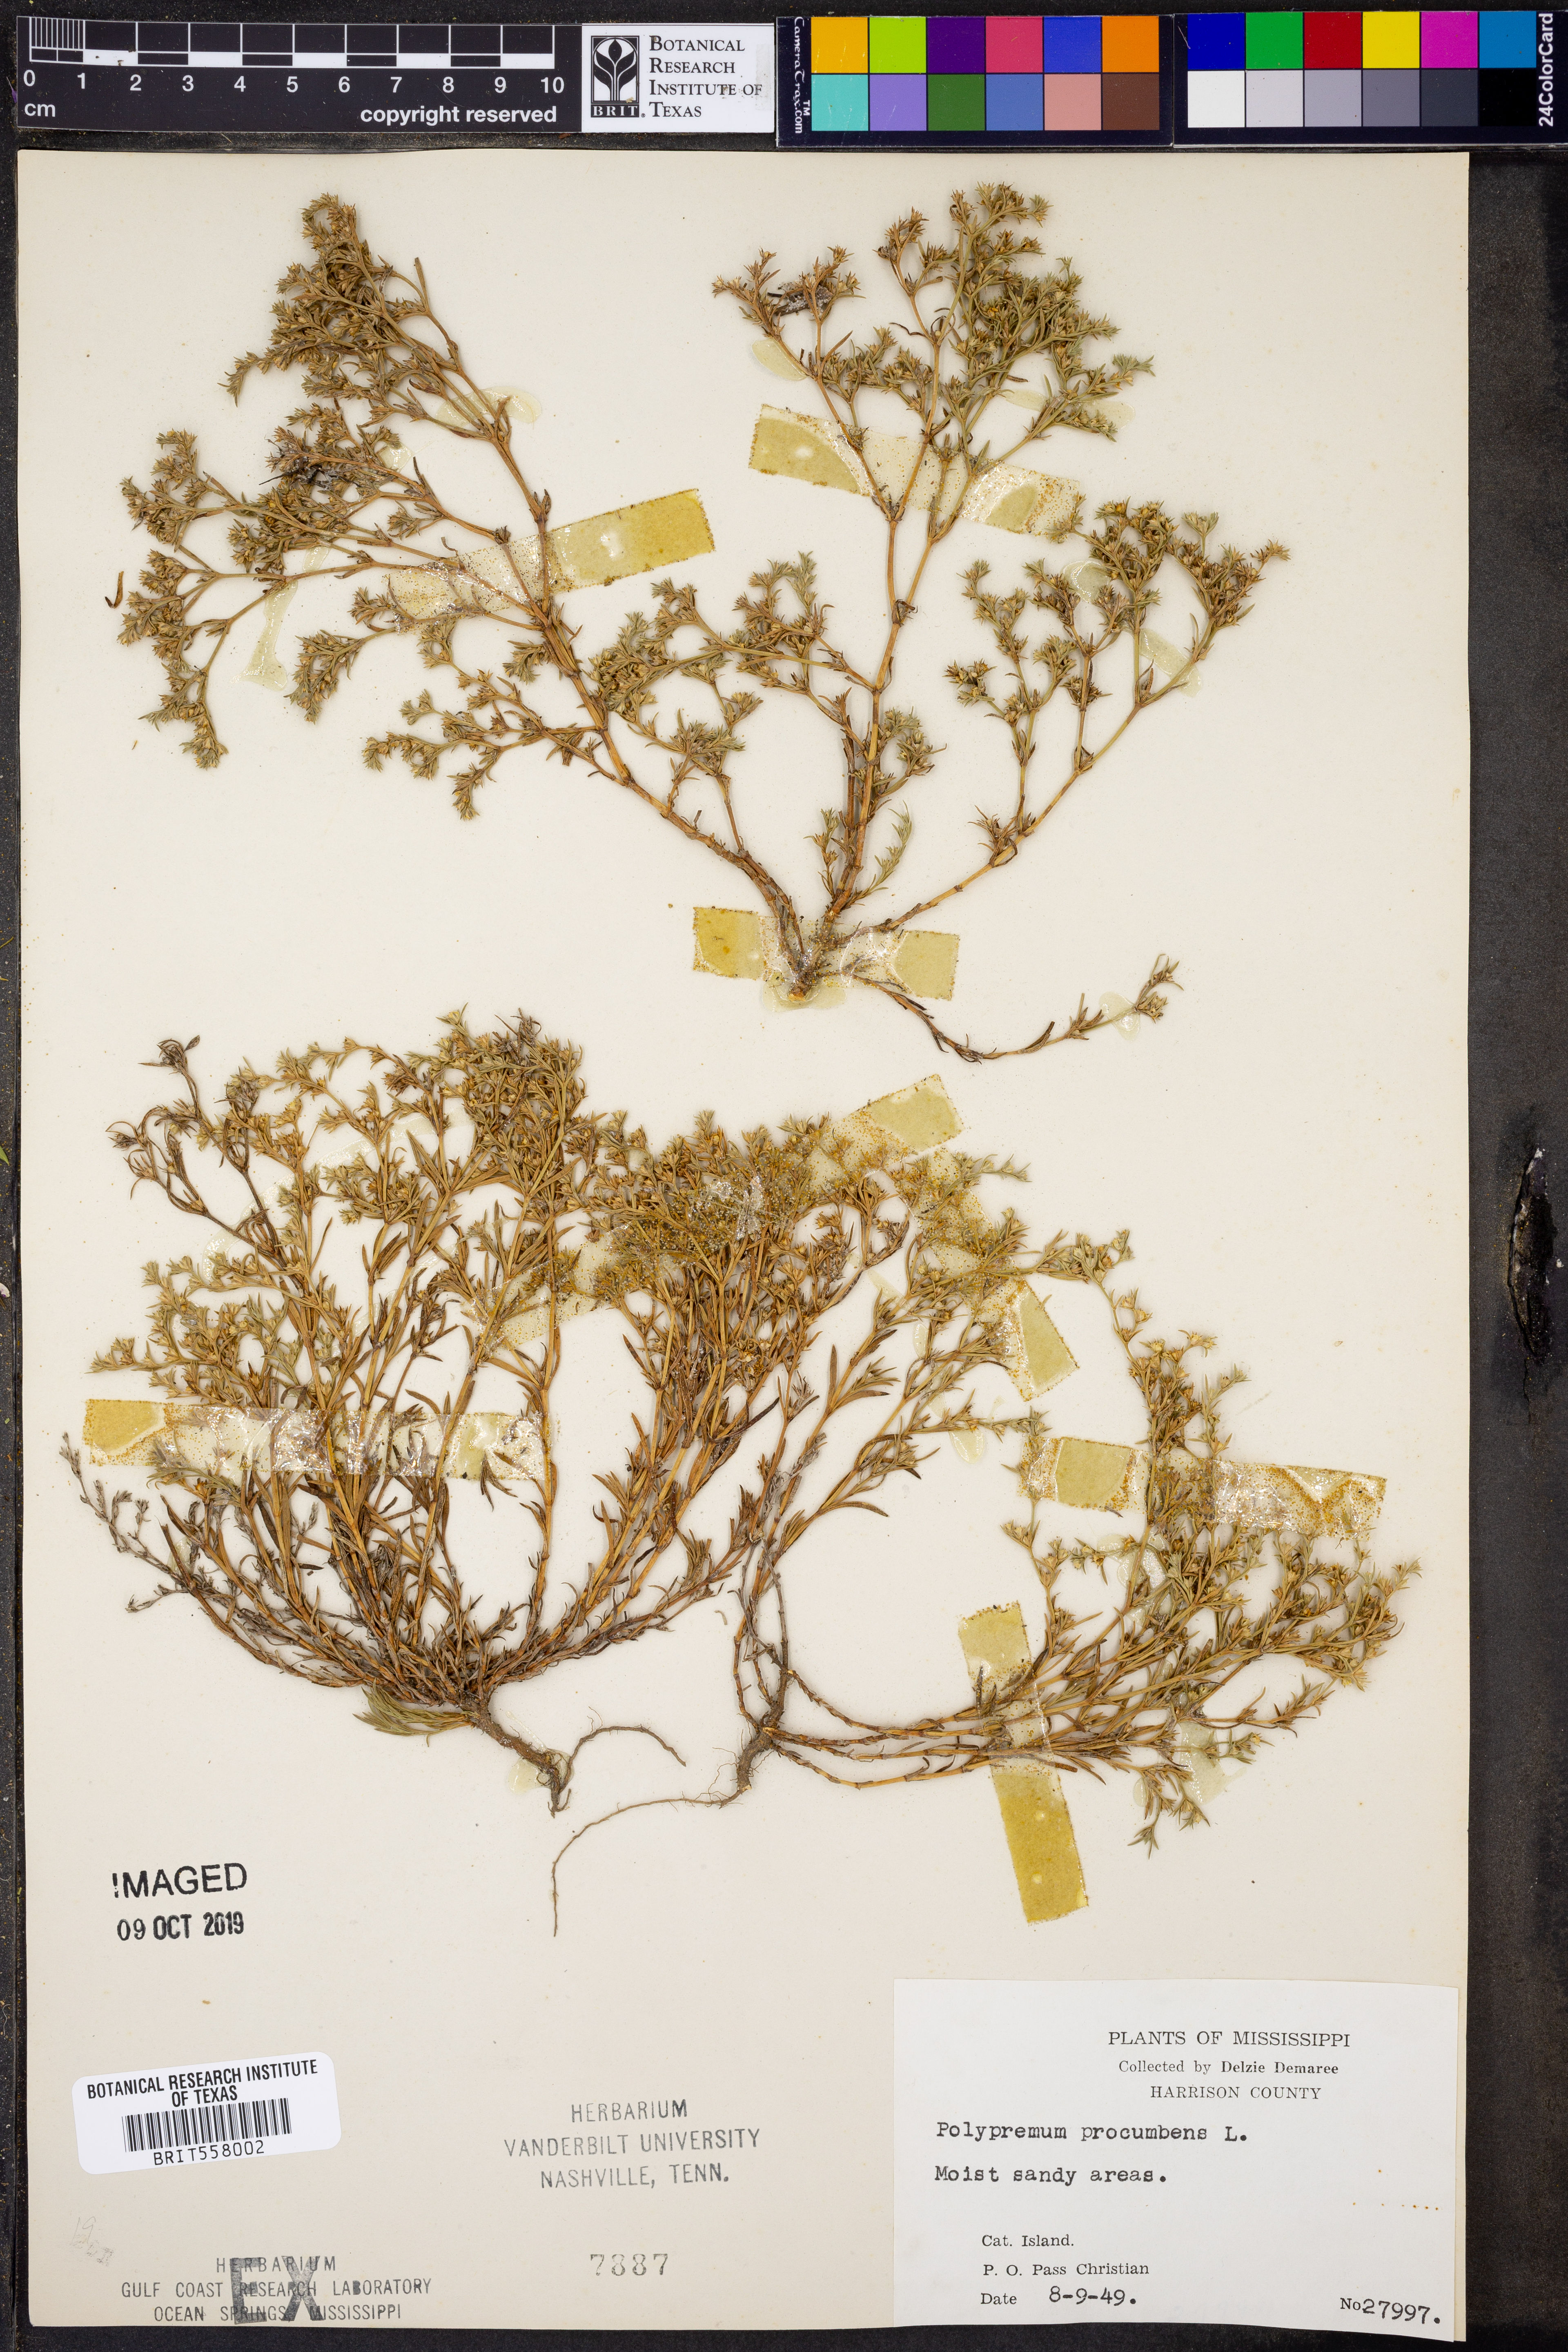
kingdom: Plantae
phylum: Tracheophyta
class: Magnoliopsida
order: Lamiales
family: Tetrachondraceae
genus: Polypremum
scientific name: Polypremum procumbens
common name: Juniper-leaf
